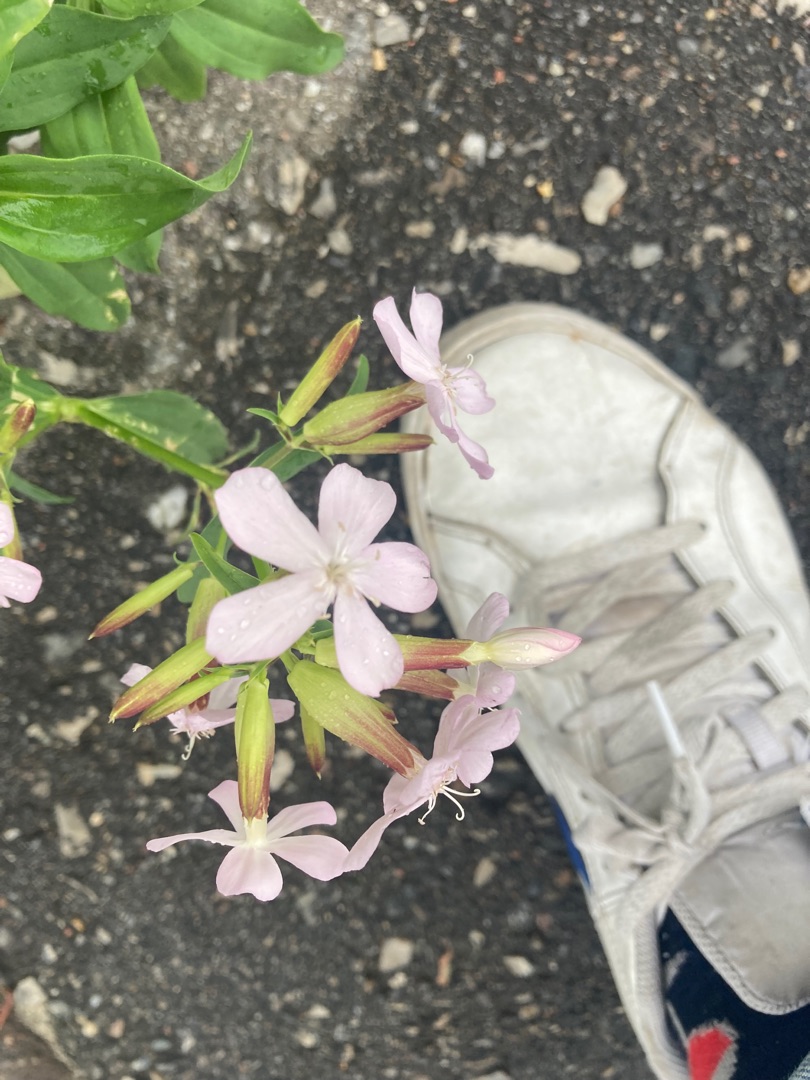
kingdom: Plantae
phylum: Tracheophyta
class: Magnoliopsida
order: Caryophyllales
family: Caryophyllaceae
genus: Saponaria
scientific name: Saponaria officinalis
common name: Sæbeurt
